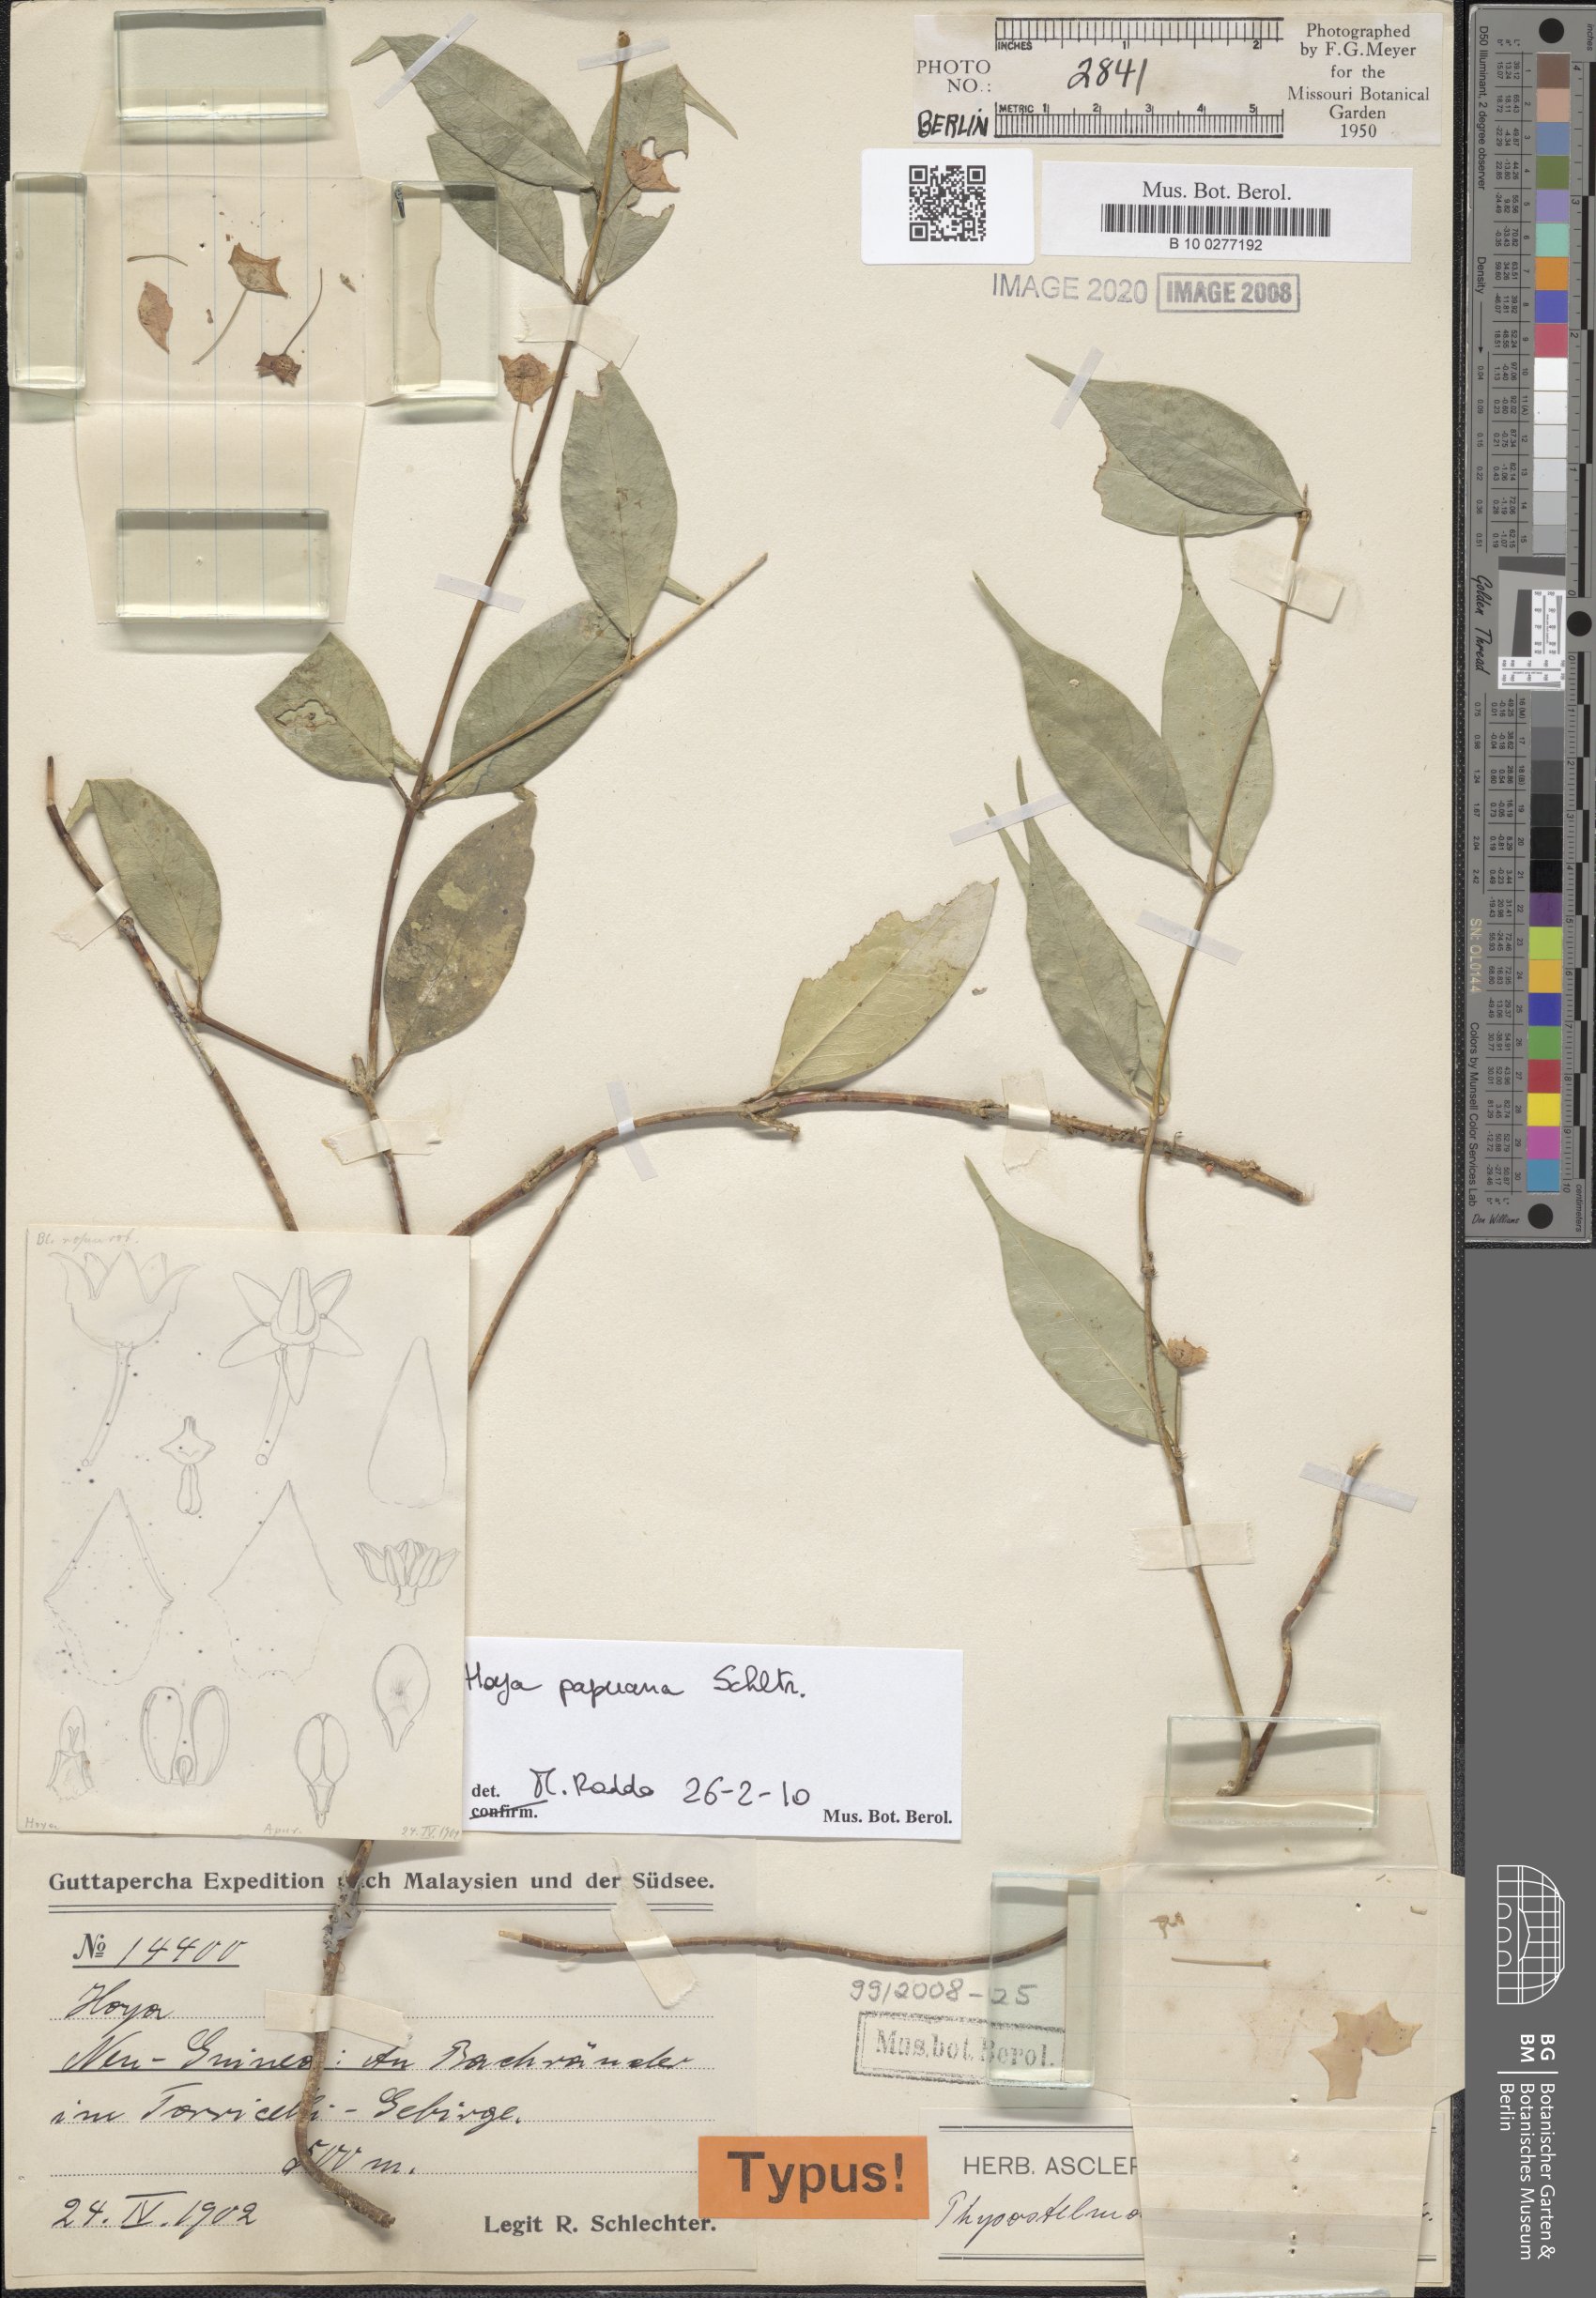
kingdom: Plantae
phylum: Tracheophyta
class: Magnoliopsida
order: Gentianales
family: Apocynaceae
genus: Hoya
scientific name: Hoya papuana
